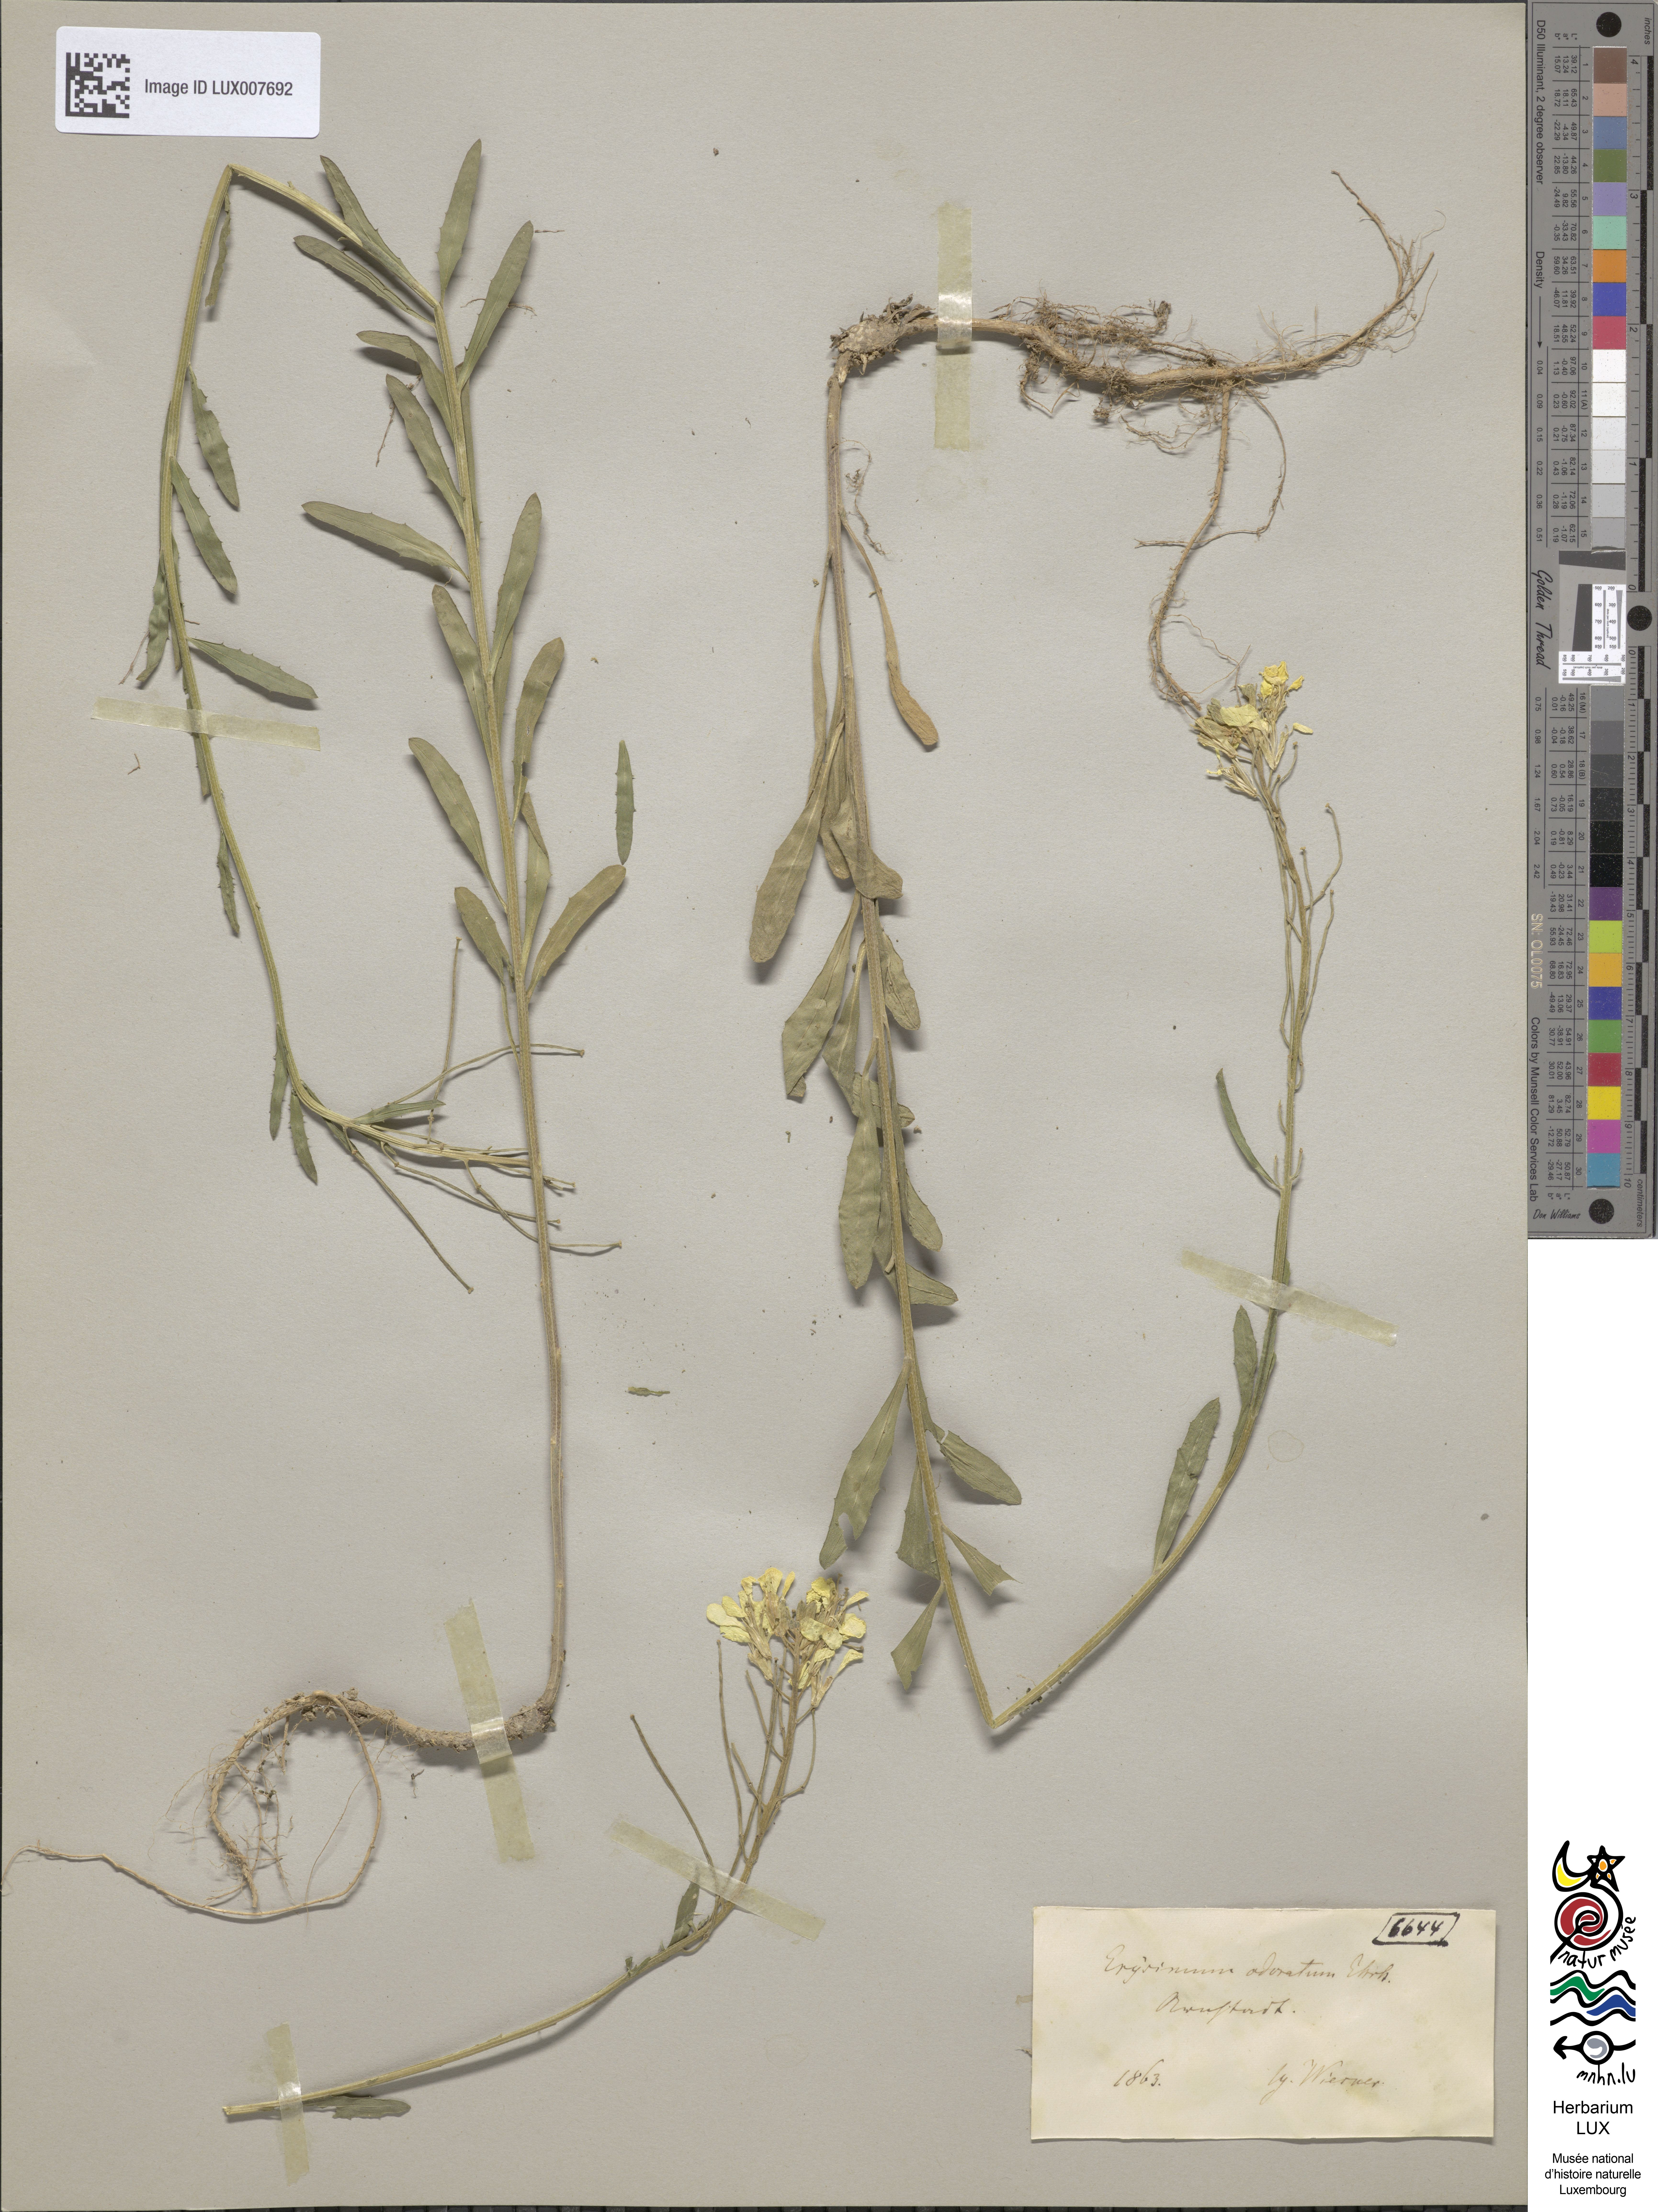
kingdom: Plantae
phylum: Tracheophyta
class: Magnoliopsida
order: Brassicales
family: Brassicaceae
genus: Erysimum
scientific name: Erysimum odoratum
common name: Smelly wallflower
